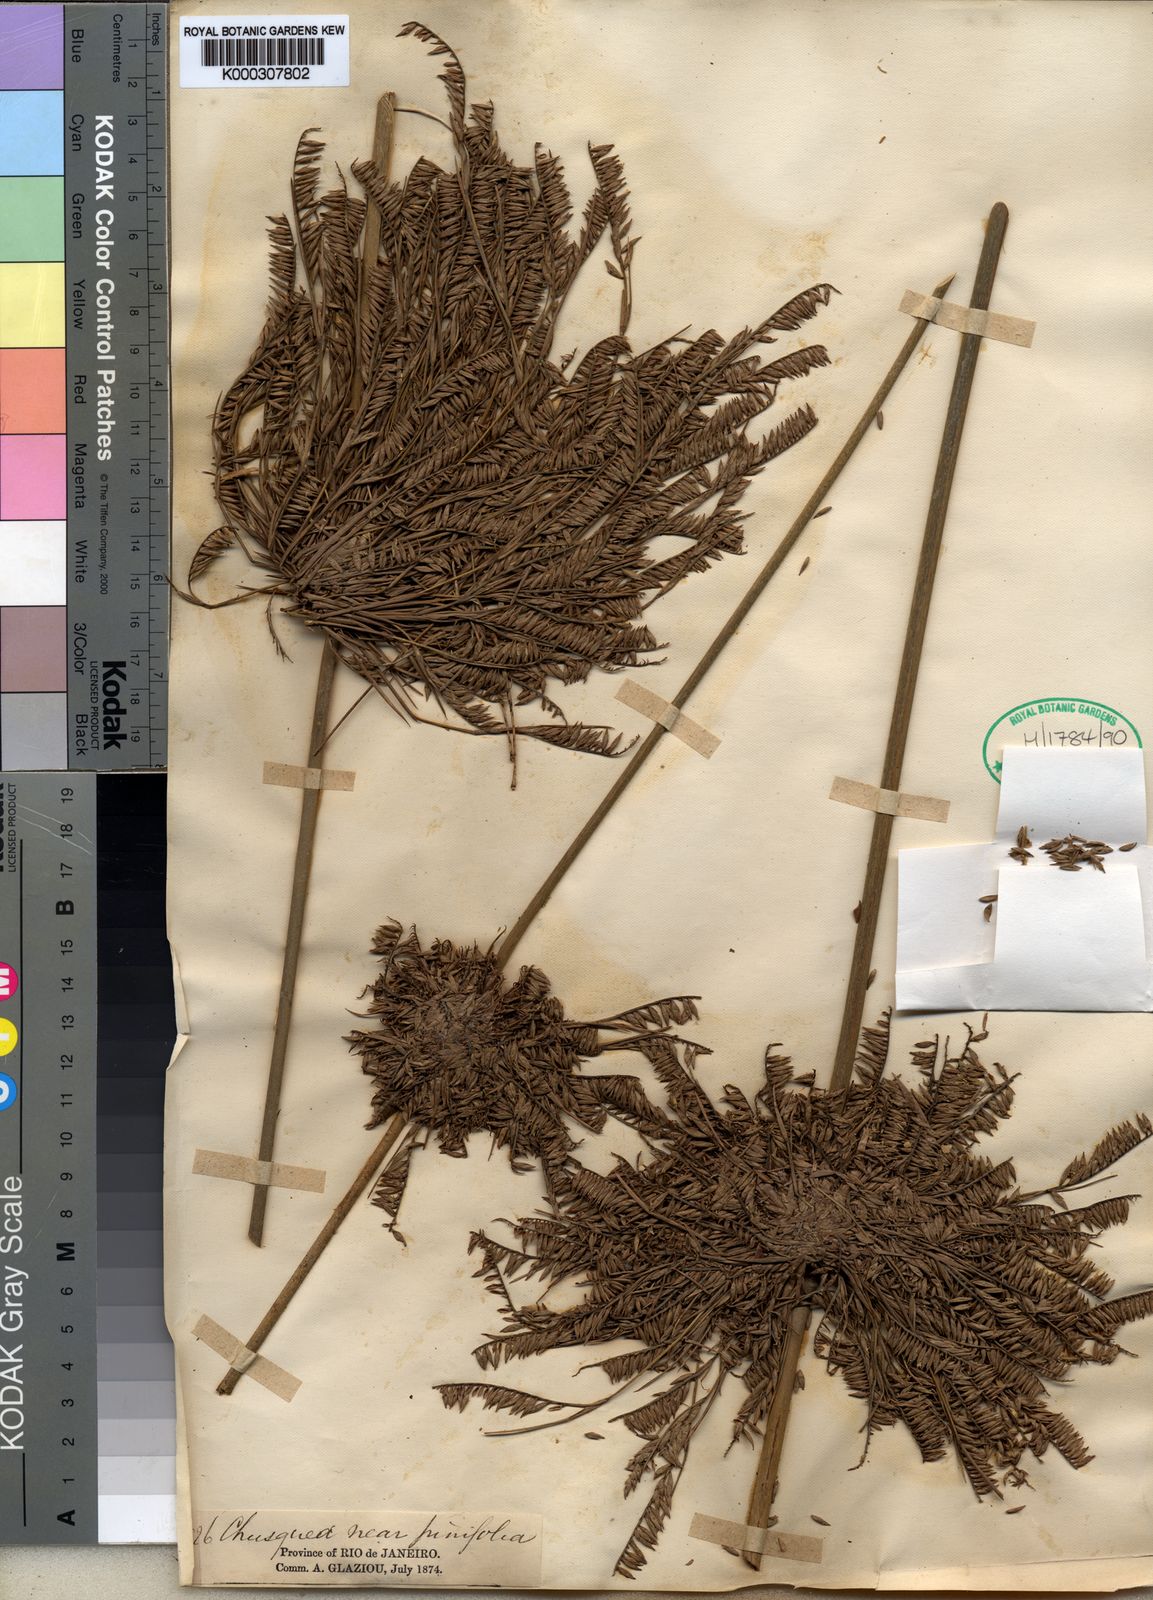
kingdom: Plantae
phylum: Tracheophyta
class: Liliopsida
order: Poales
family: Poaceae
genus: Merostachys
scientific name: Merostachys petiolata
